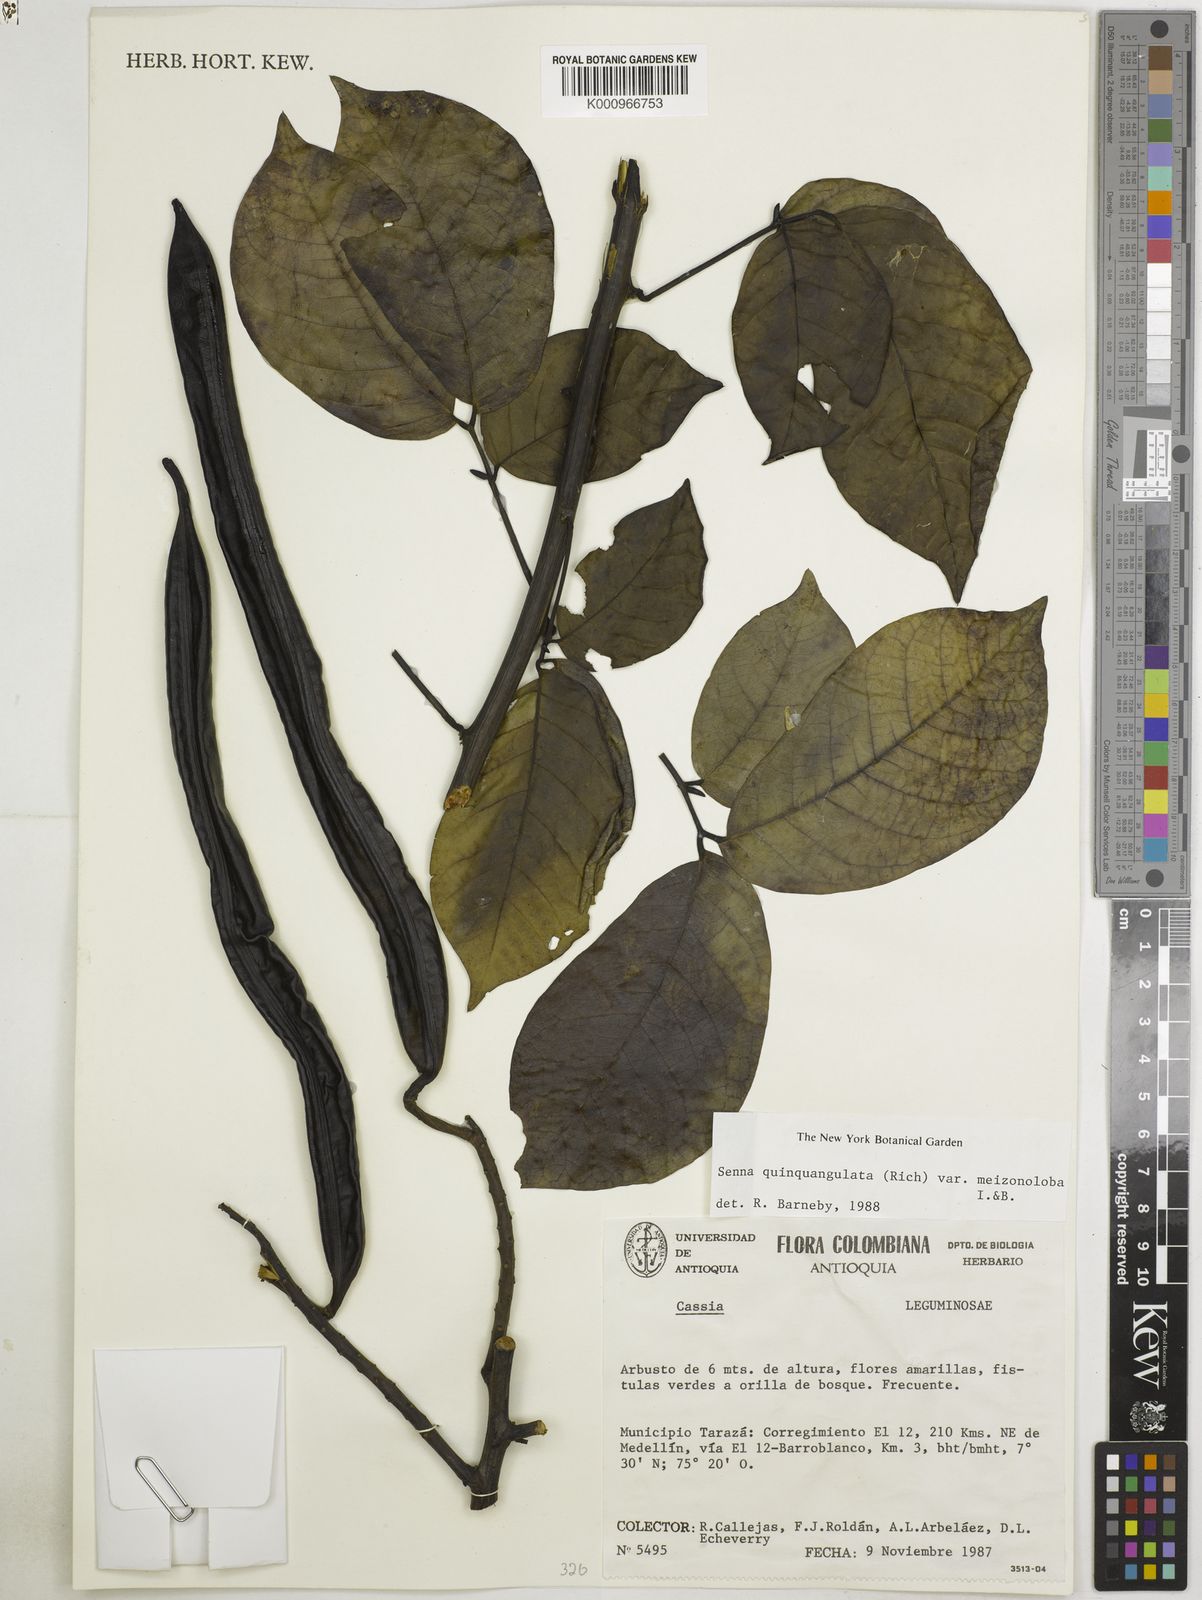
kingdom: Plantae
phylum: Tracheophyta
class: Magnoliopsida
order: Fabales
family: Fabaceae
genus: Senna
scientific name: Senna quinquangulata
